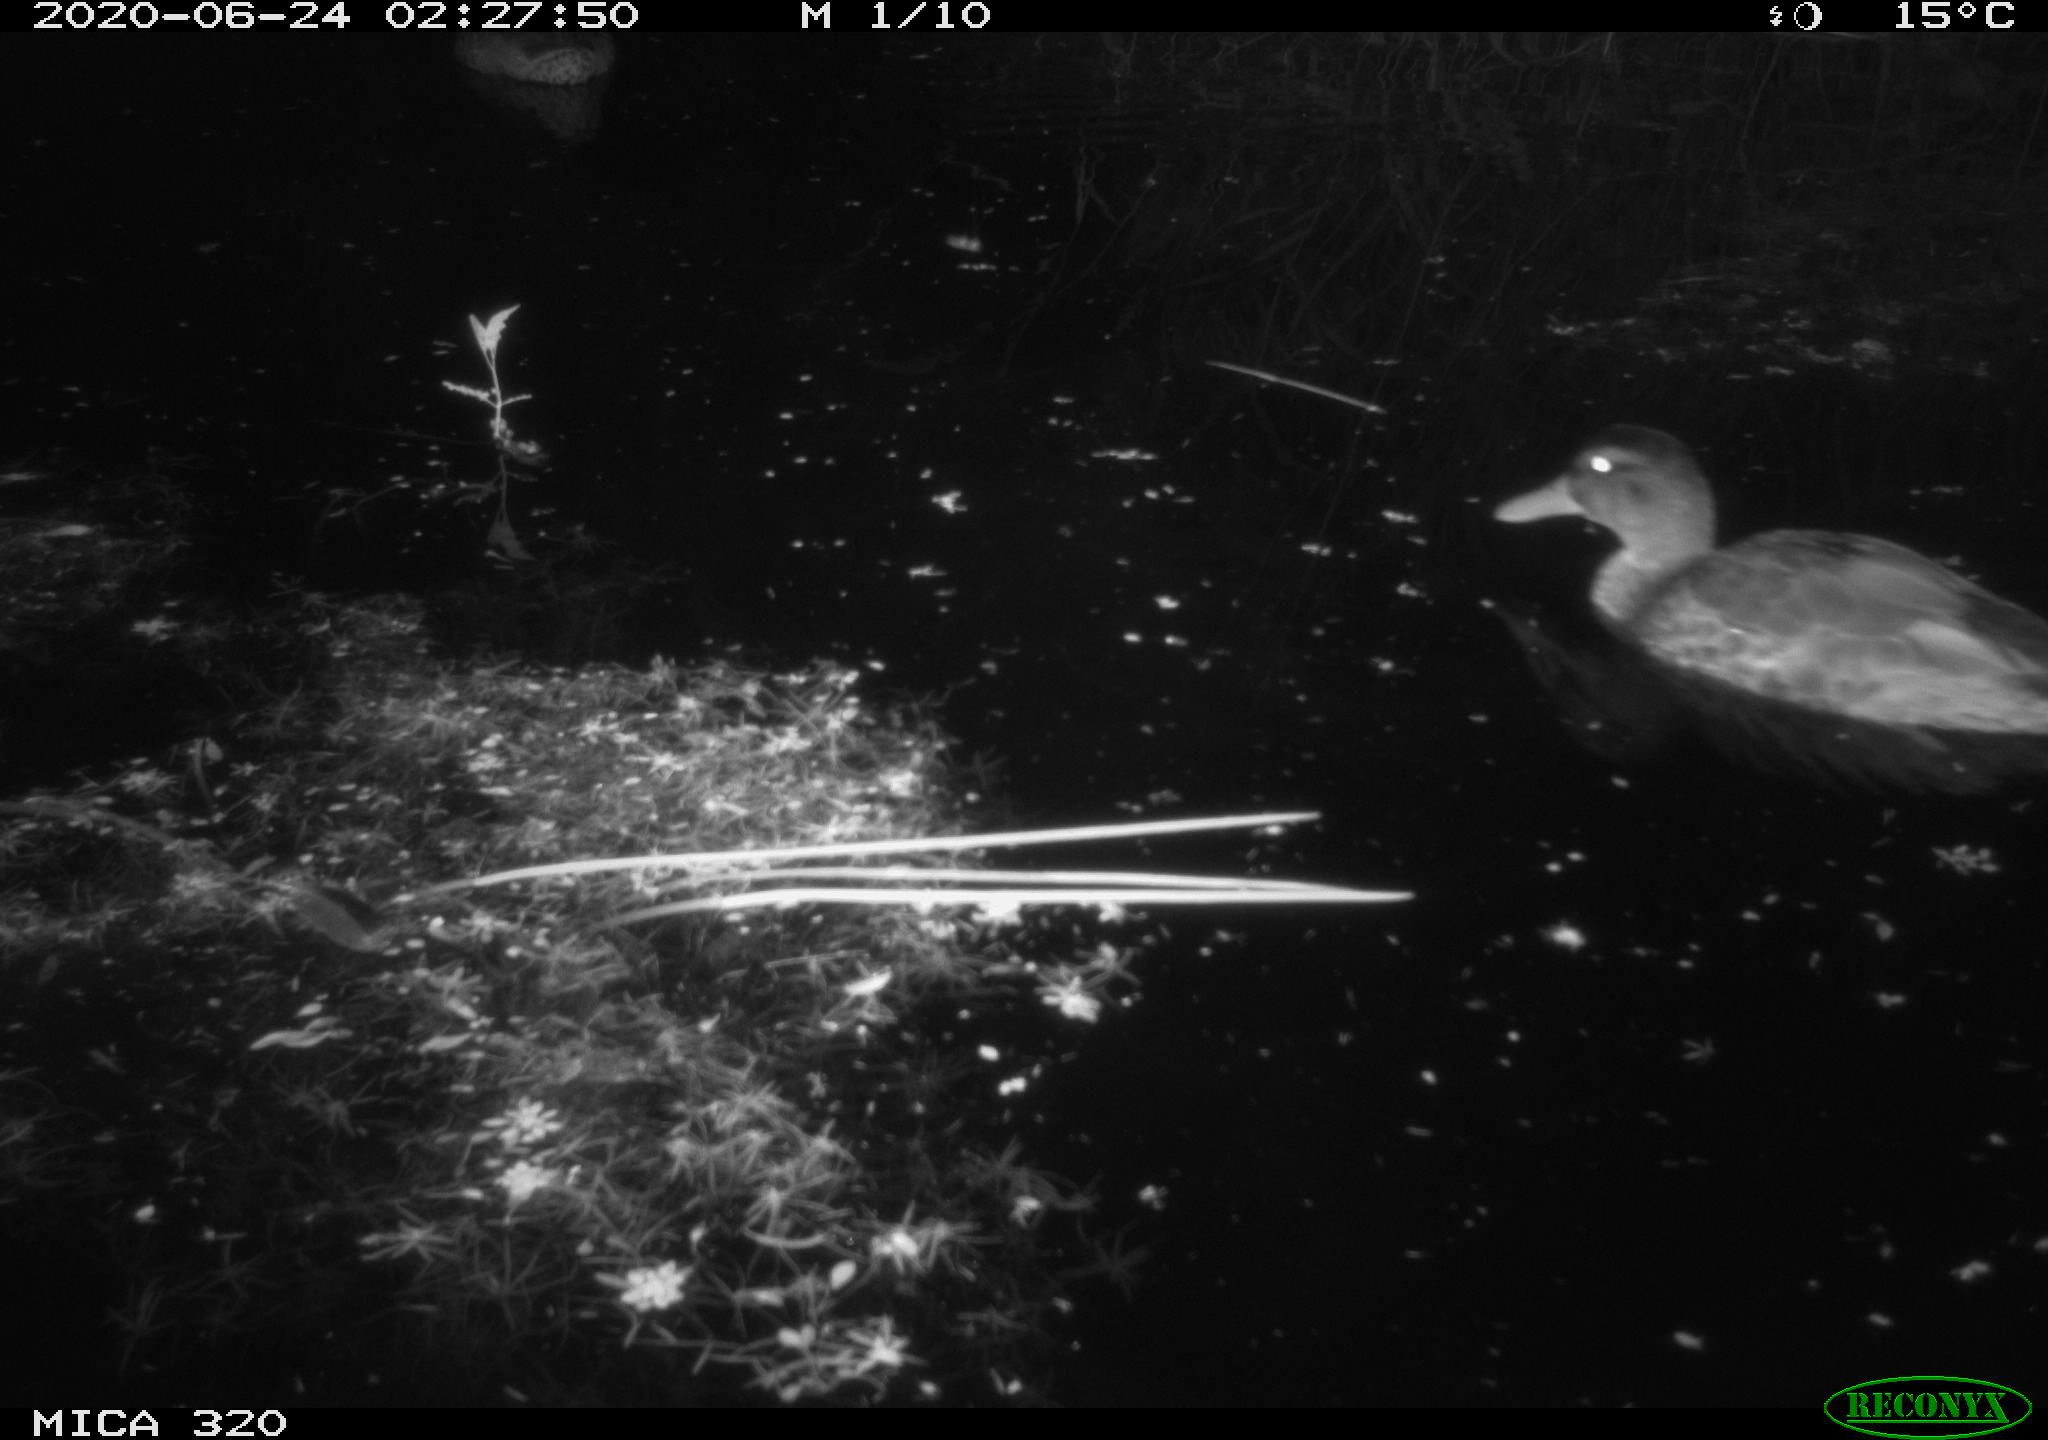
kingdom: Animalia
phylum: Chordata
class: Aves
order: Anseriformes
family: Anatidae
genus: Anas
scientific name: Anas platyrhynchos
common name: Mallard
